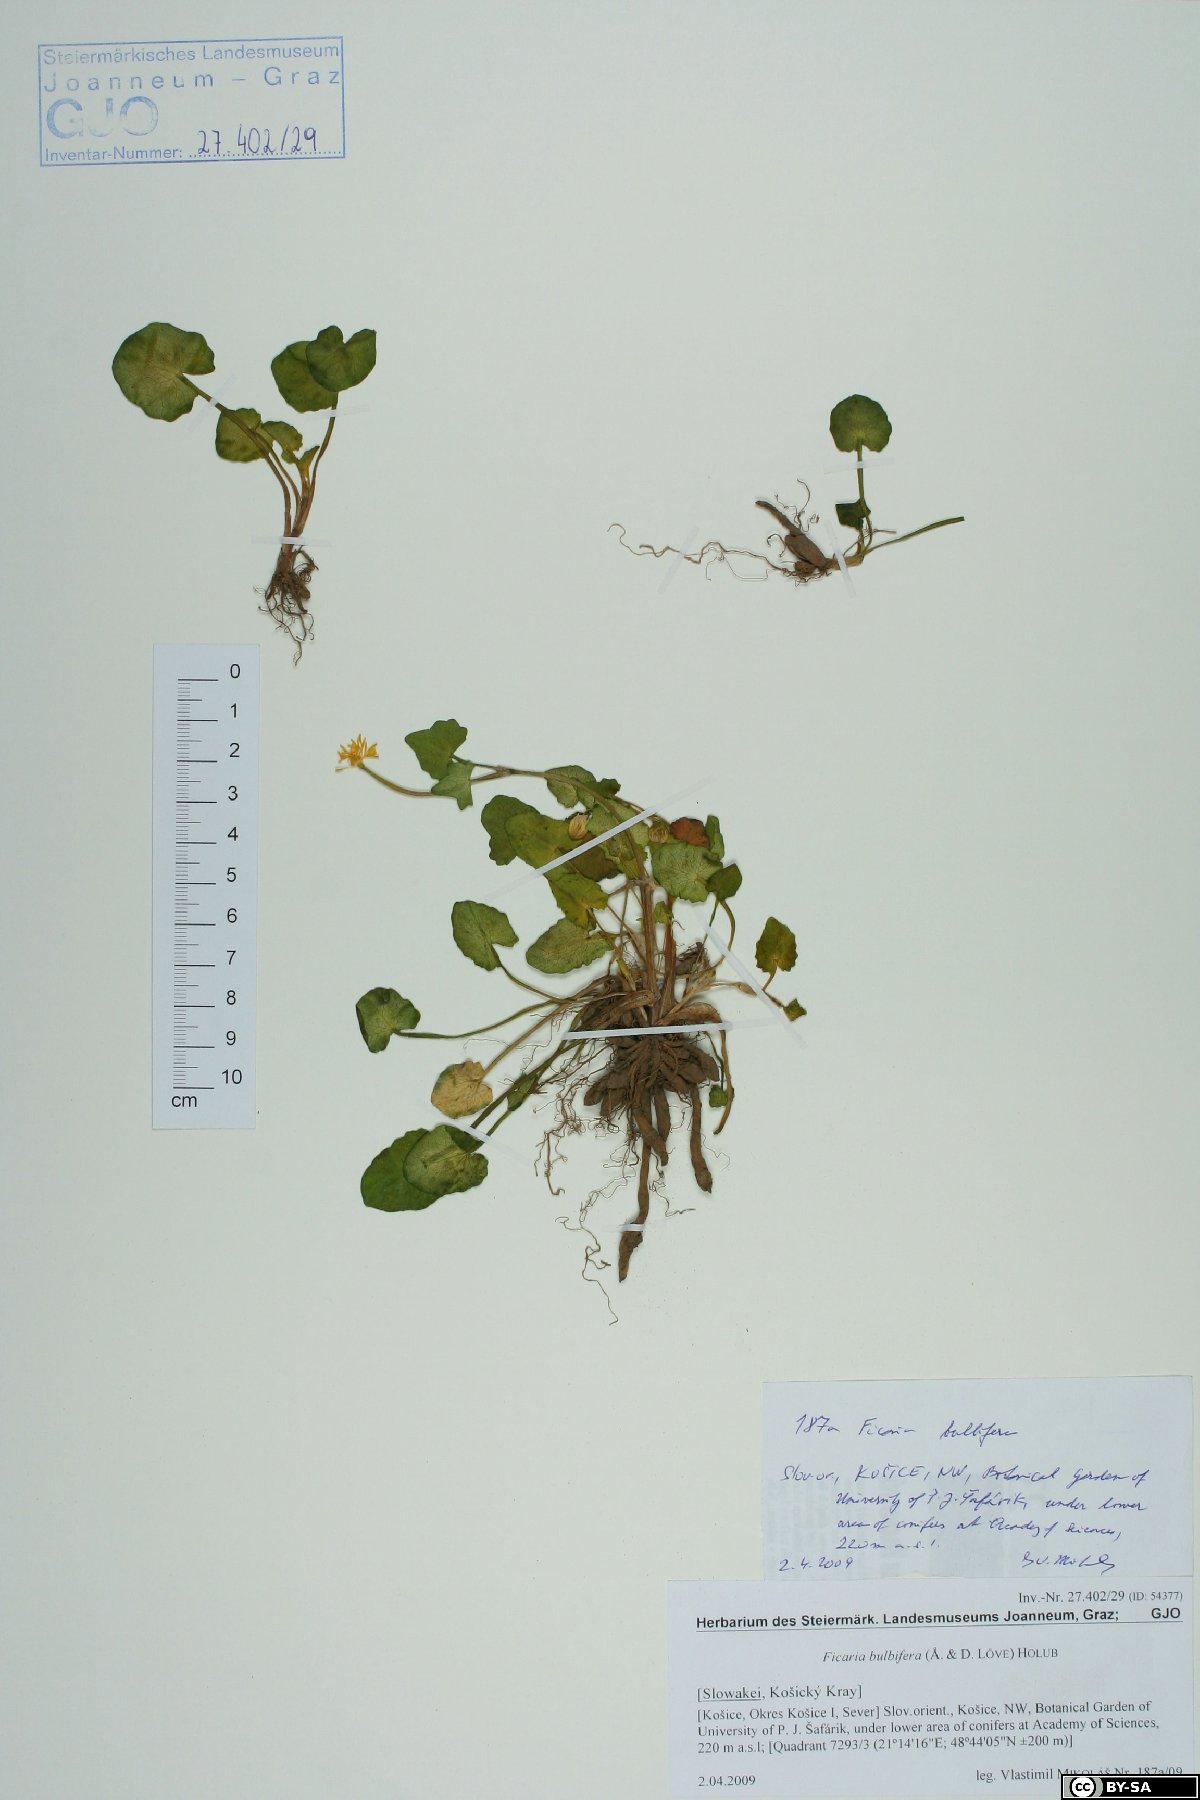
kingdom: Plantae
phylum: Tracheophyta
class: Magnoliopsida
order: Ranunculales
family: Ranunculaceae
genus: Ficaria
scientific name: Ficaria verna
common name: Lesser celandine
